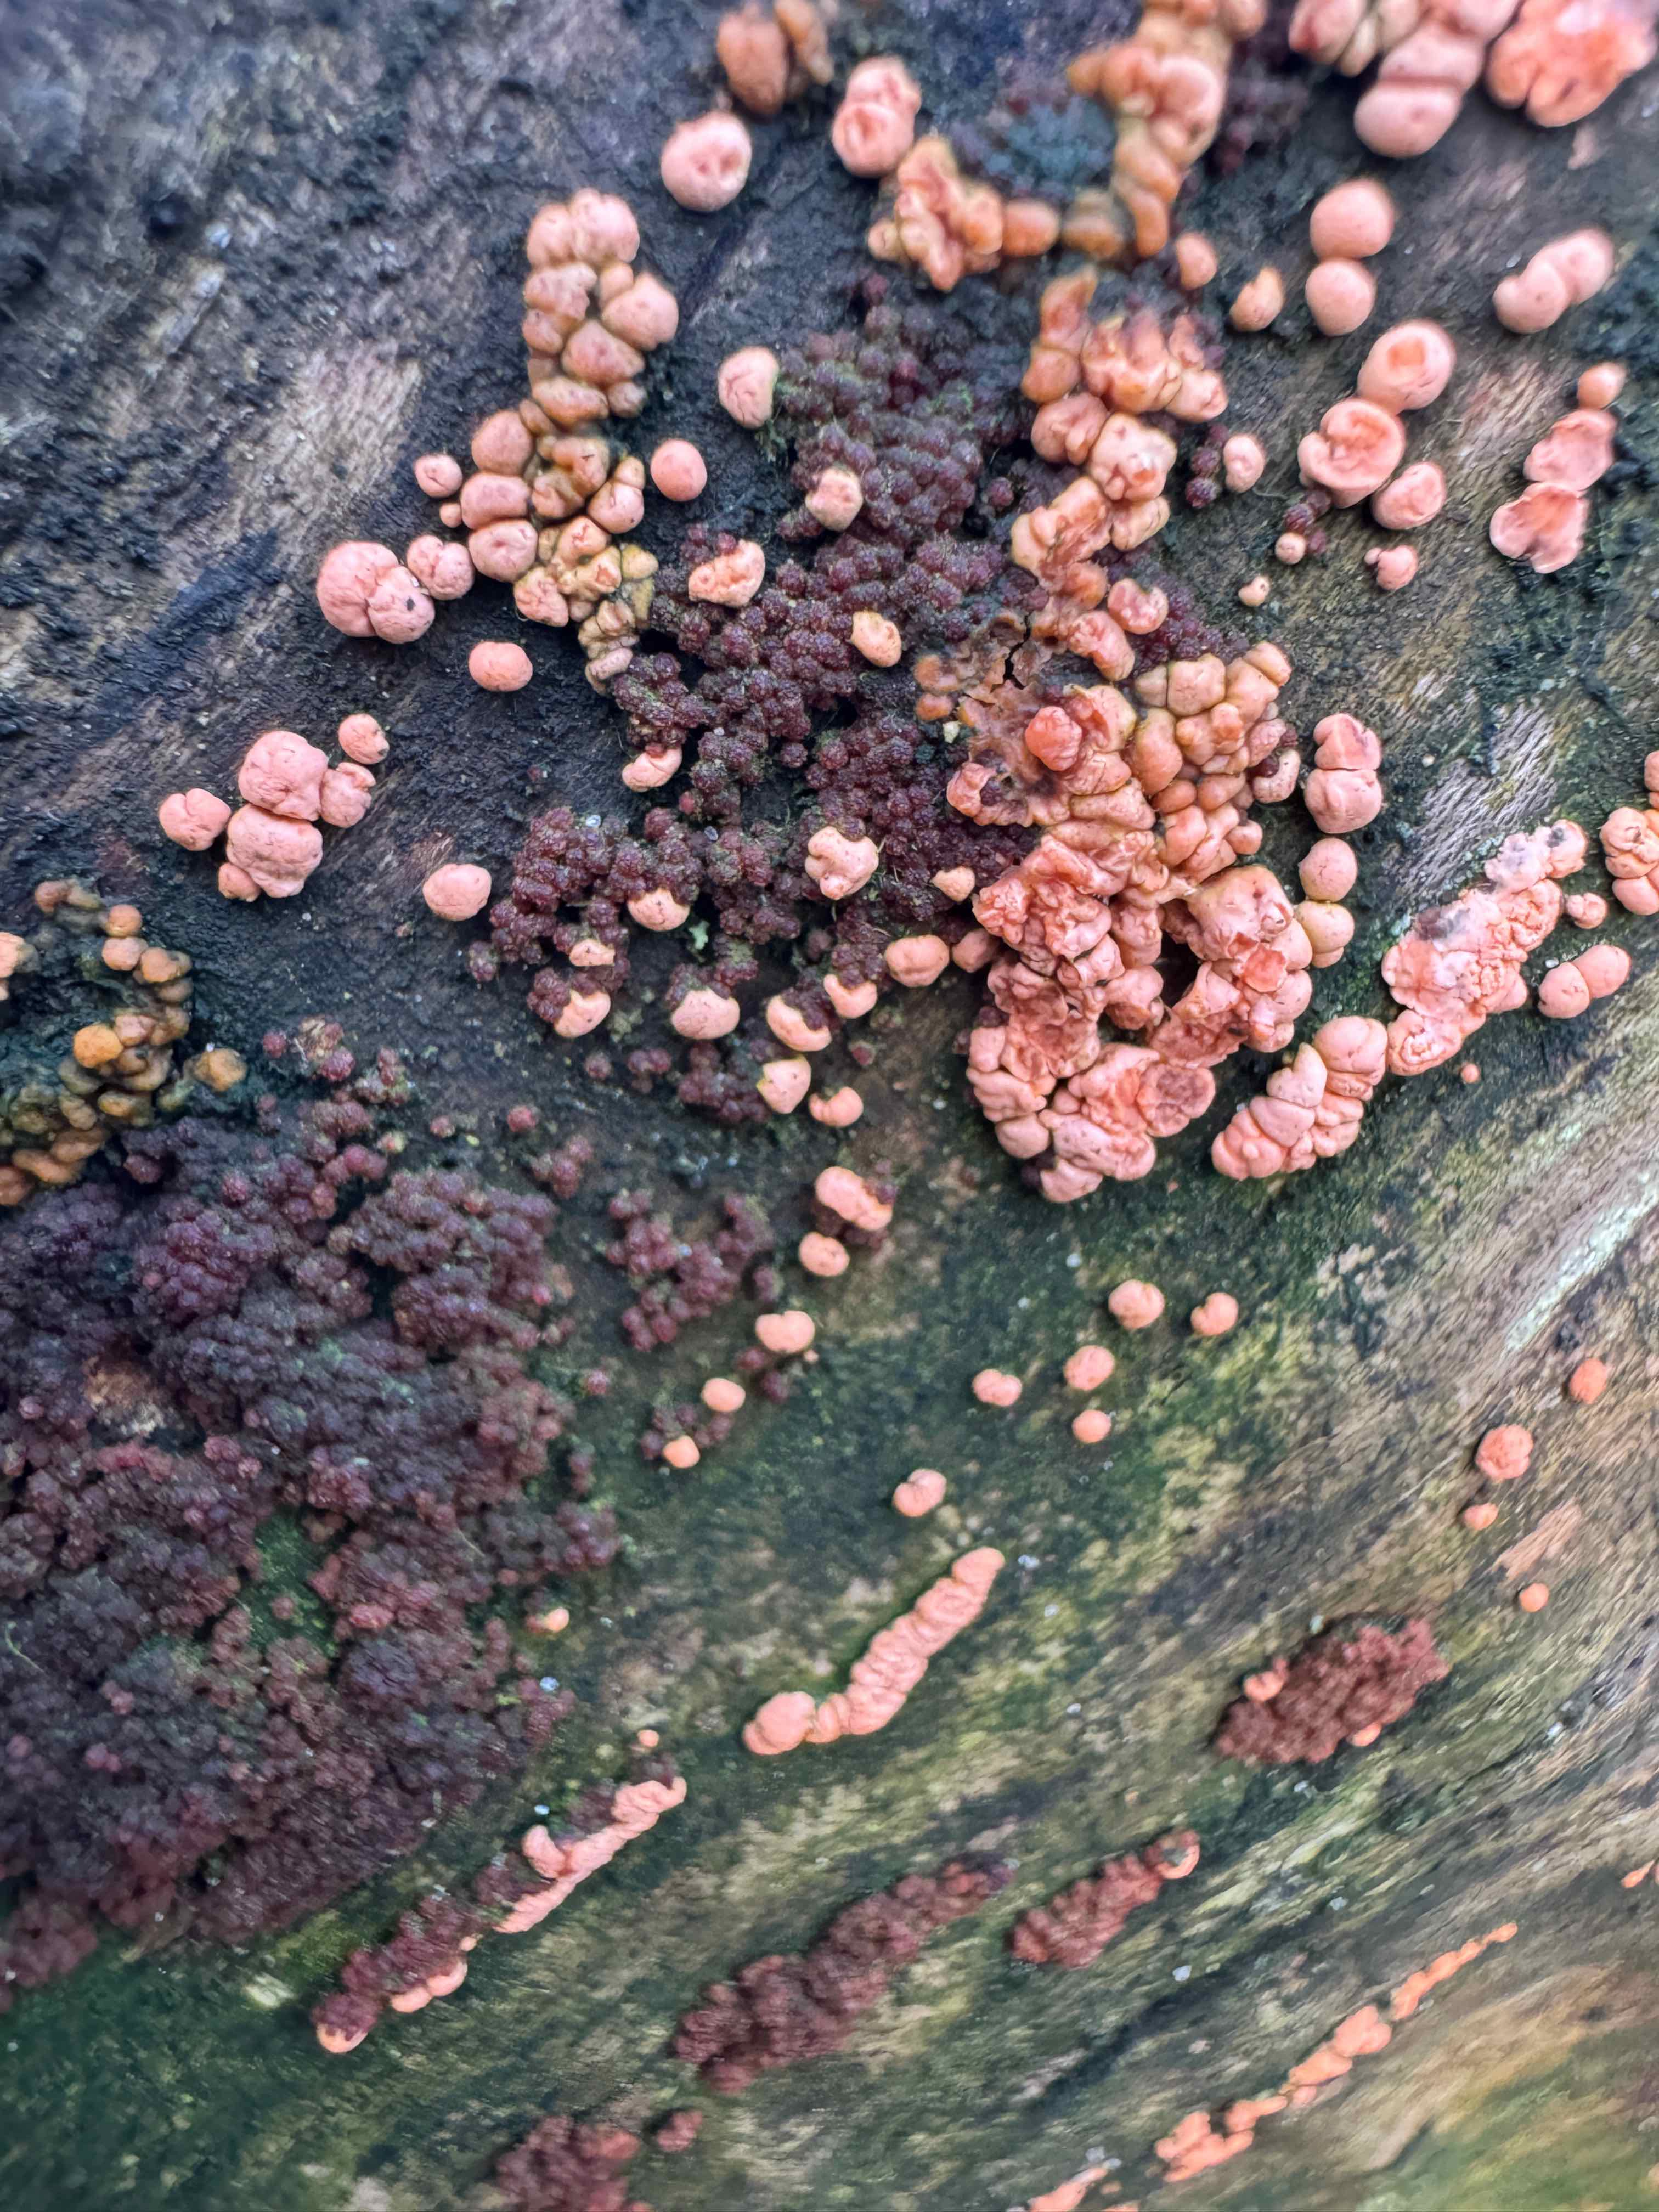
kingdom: Fungi
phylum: Ascomycota
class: Sordariomycetes
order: Hypocreales
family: Nectriaceae
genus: Nectria
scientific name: Nectria cinnabarina
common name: almindelig cinnobersvamp
